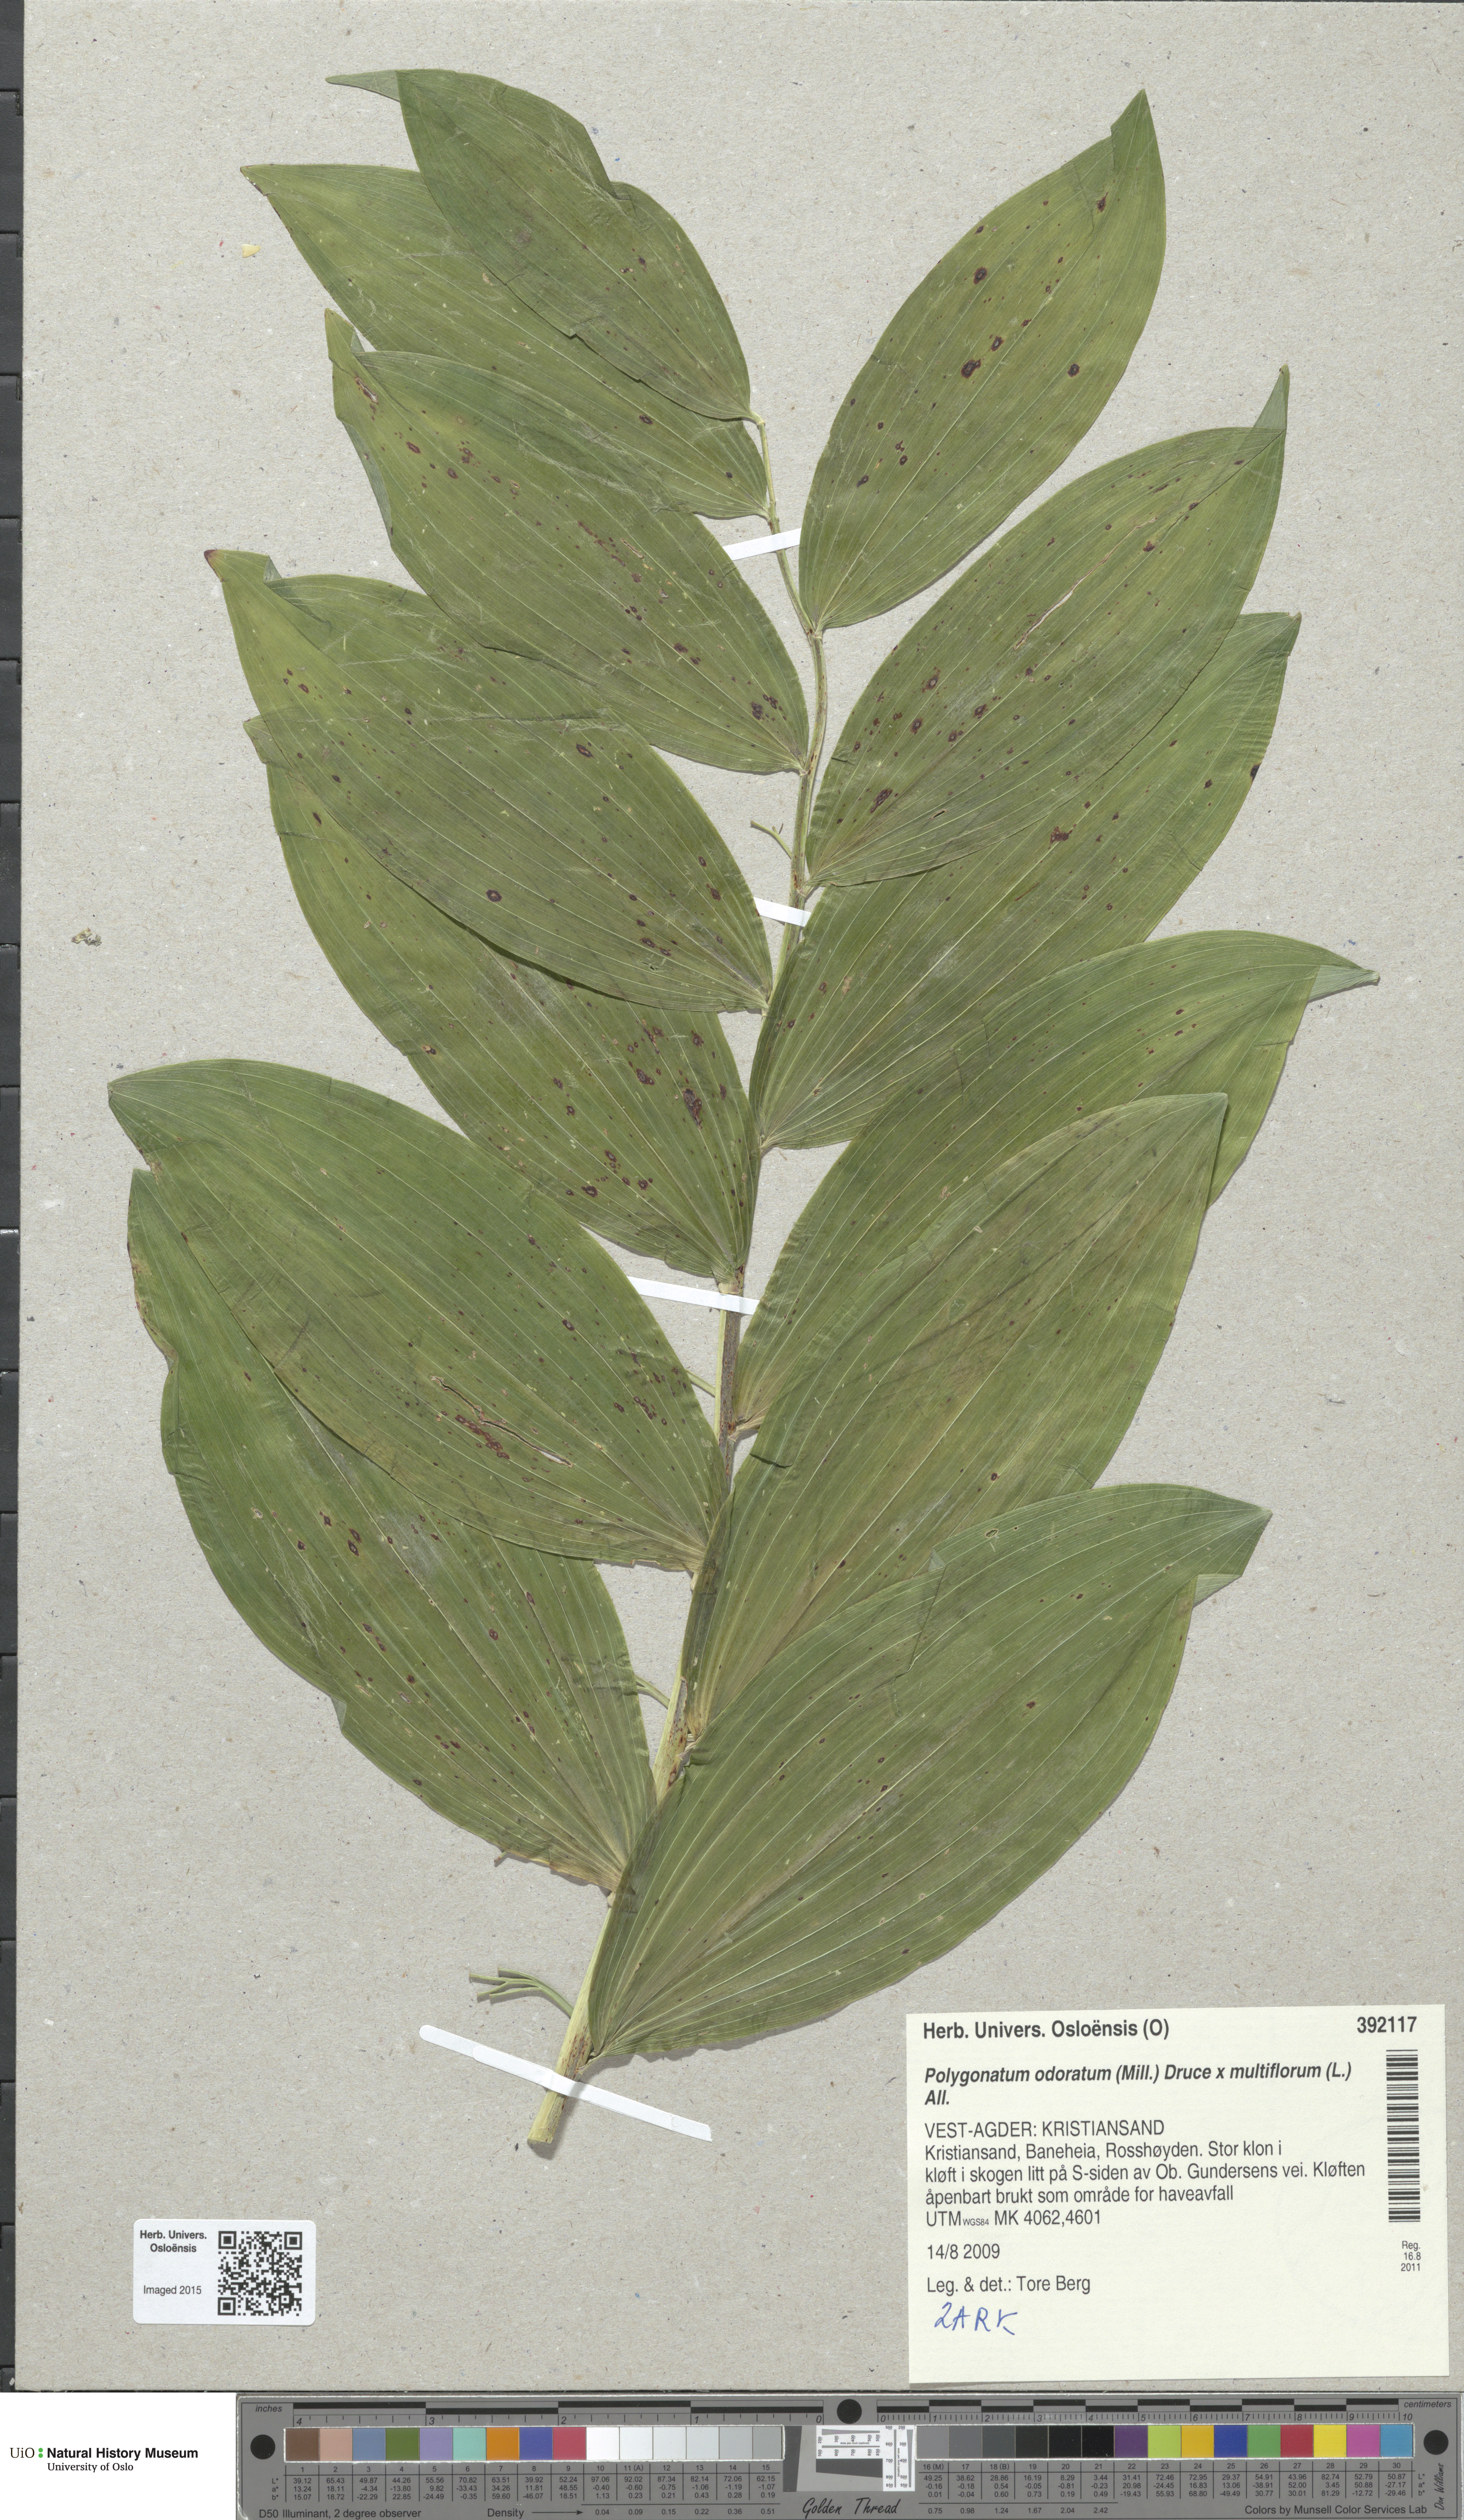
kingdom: Plantae
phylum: Tracheophyta
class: Liliopsida
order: Asparagales
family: Asparagaceae
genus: Polygonatum
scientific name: Polygonatum
